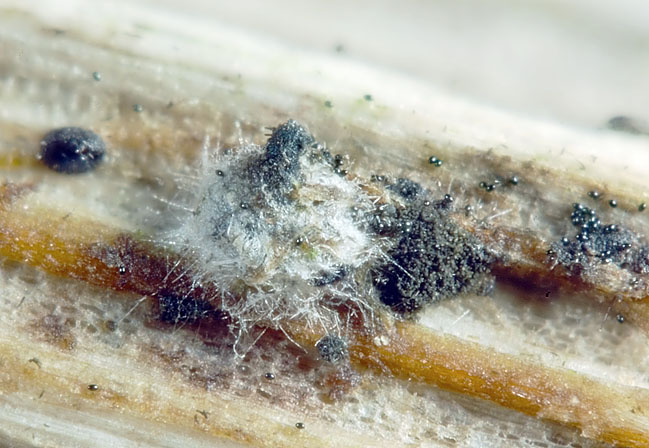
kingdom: Fungi
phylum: Ascomycota
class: Sordariomycetes
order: Sordariales
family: Lasiosphaeriaceae
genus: Arnium
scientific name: Arnium apiculatum
